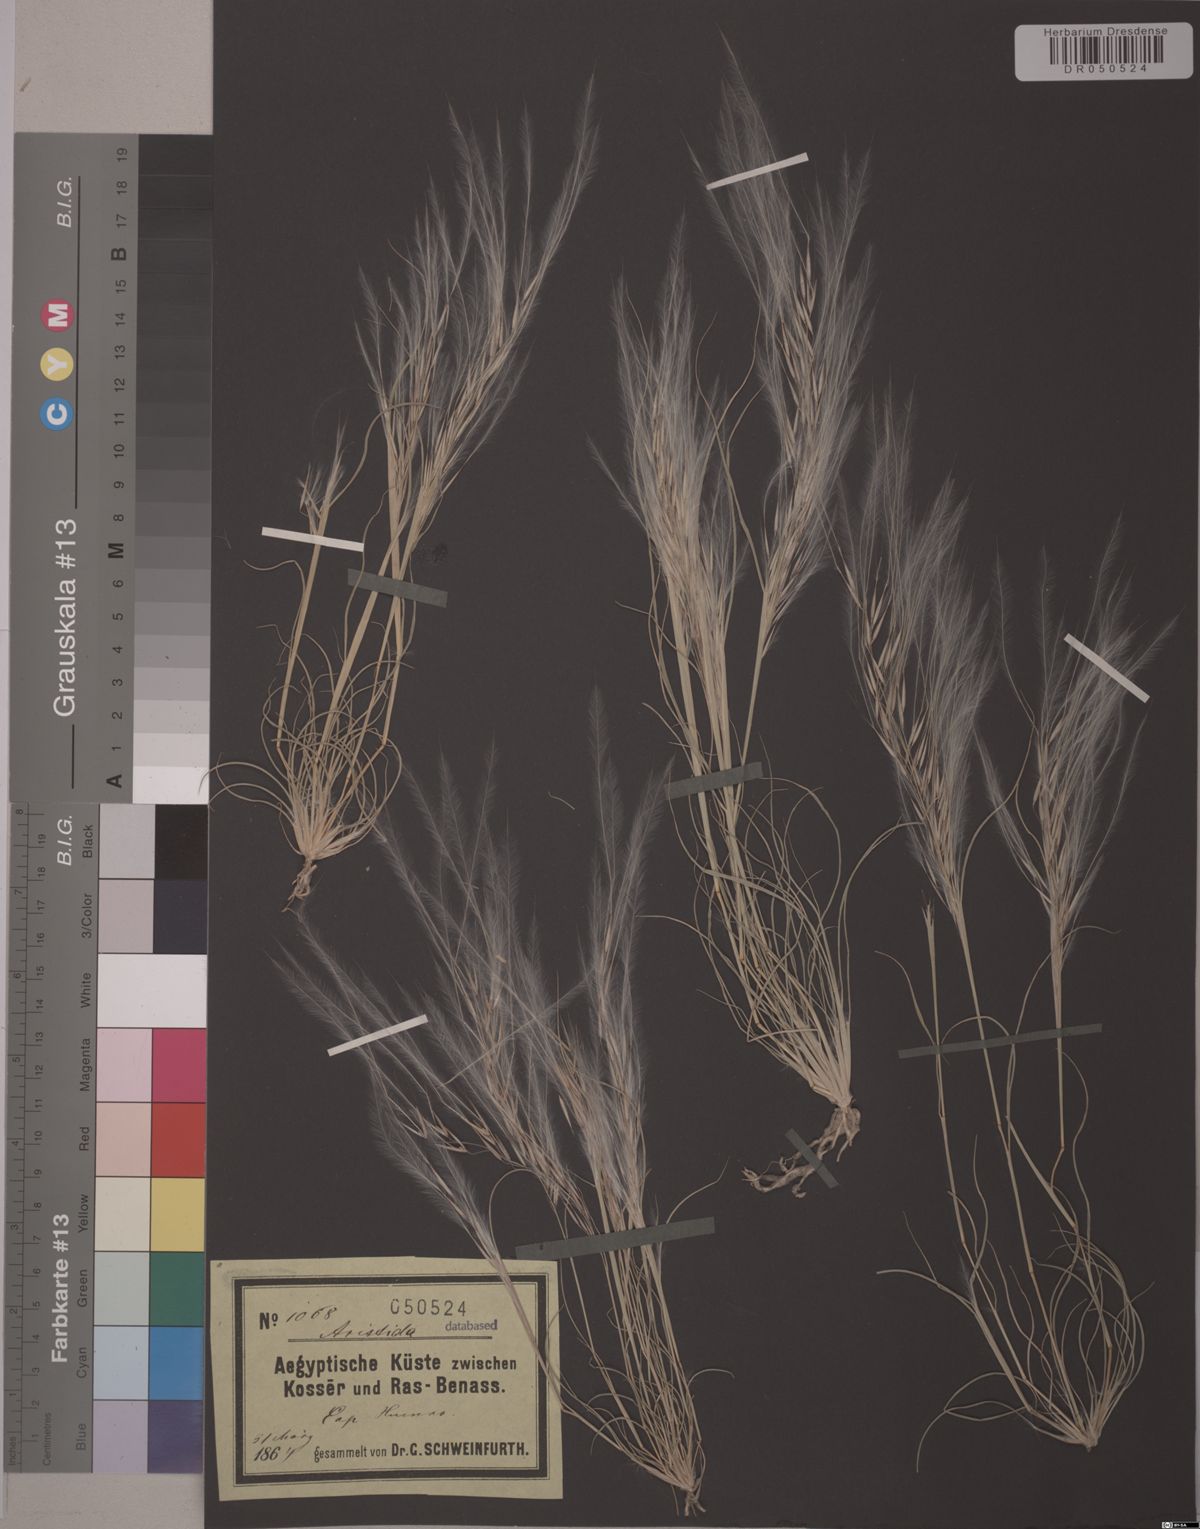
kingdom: Plantae
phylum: Tracheophyta
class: Liliopsida
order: Poales
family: Poaceae
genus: Aristida
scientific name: Aristida
